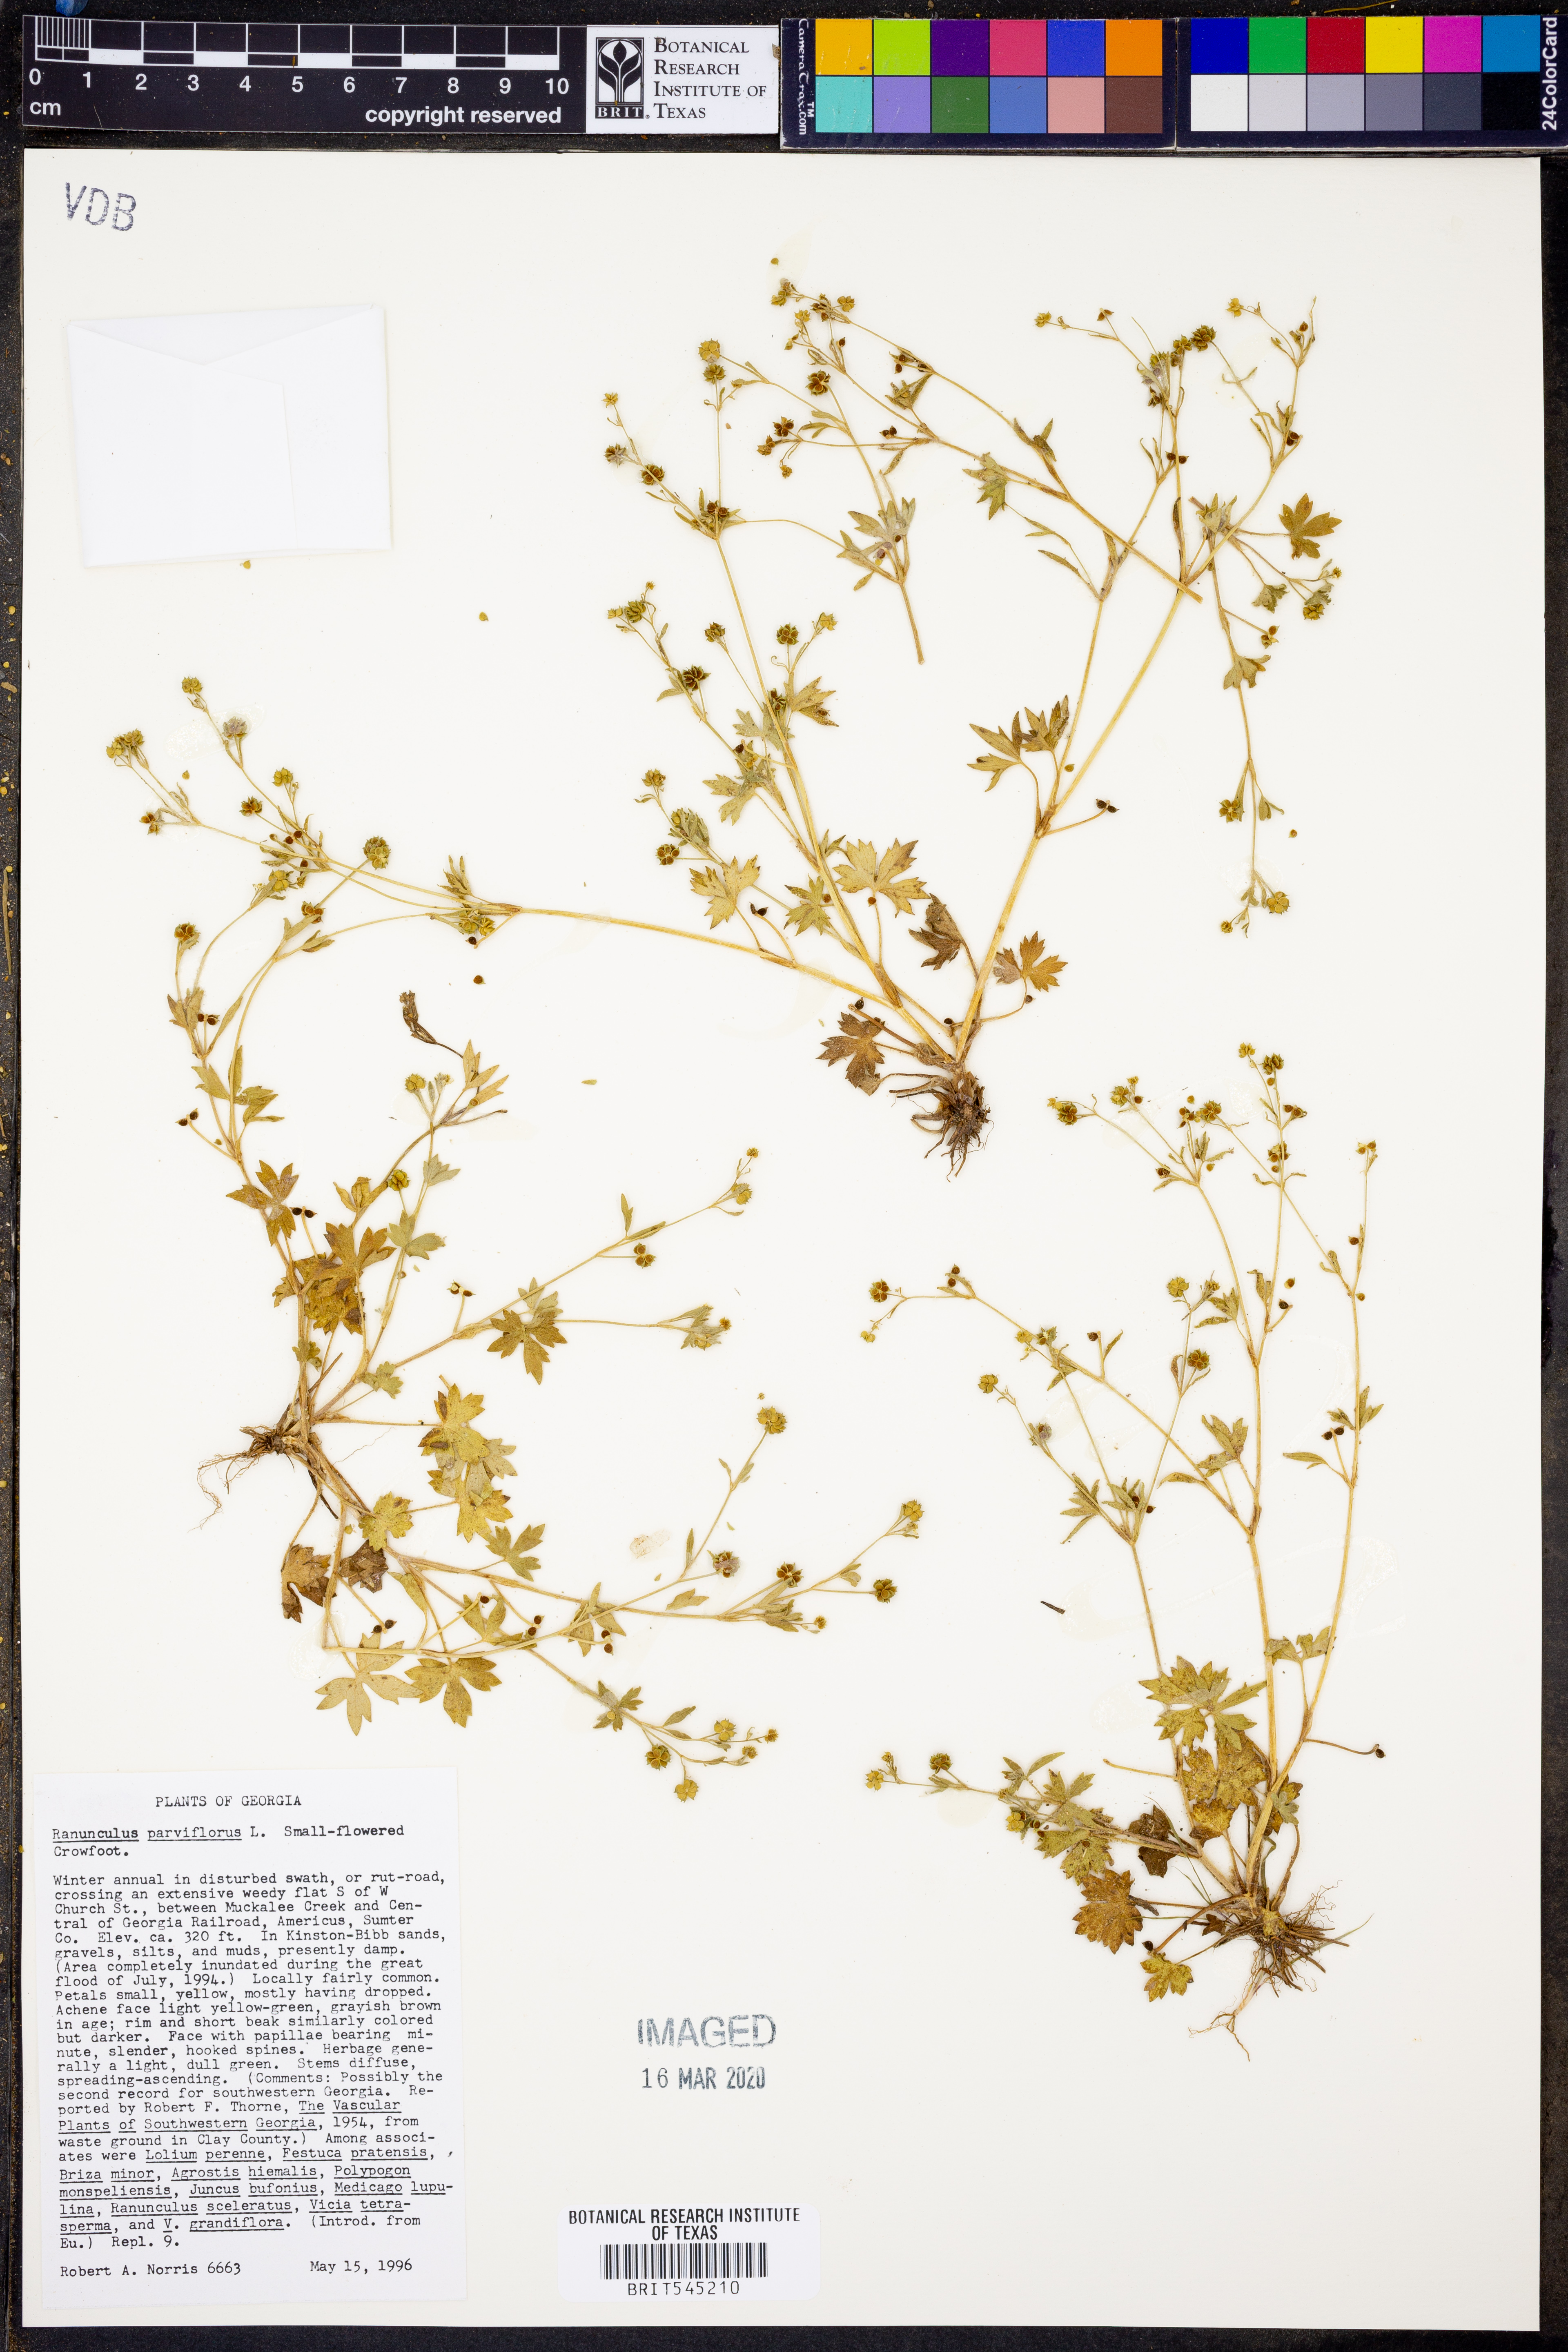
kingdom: Plantae
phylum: Tracheophyta
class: Magnoliopsida
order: Ranunculales
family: Ranunculaceae
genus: Ranunculus
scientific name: Ranunculus parviflorus
